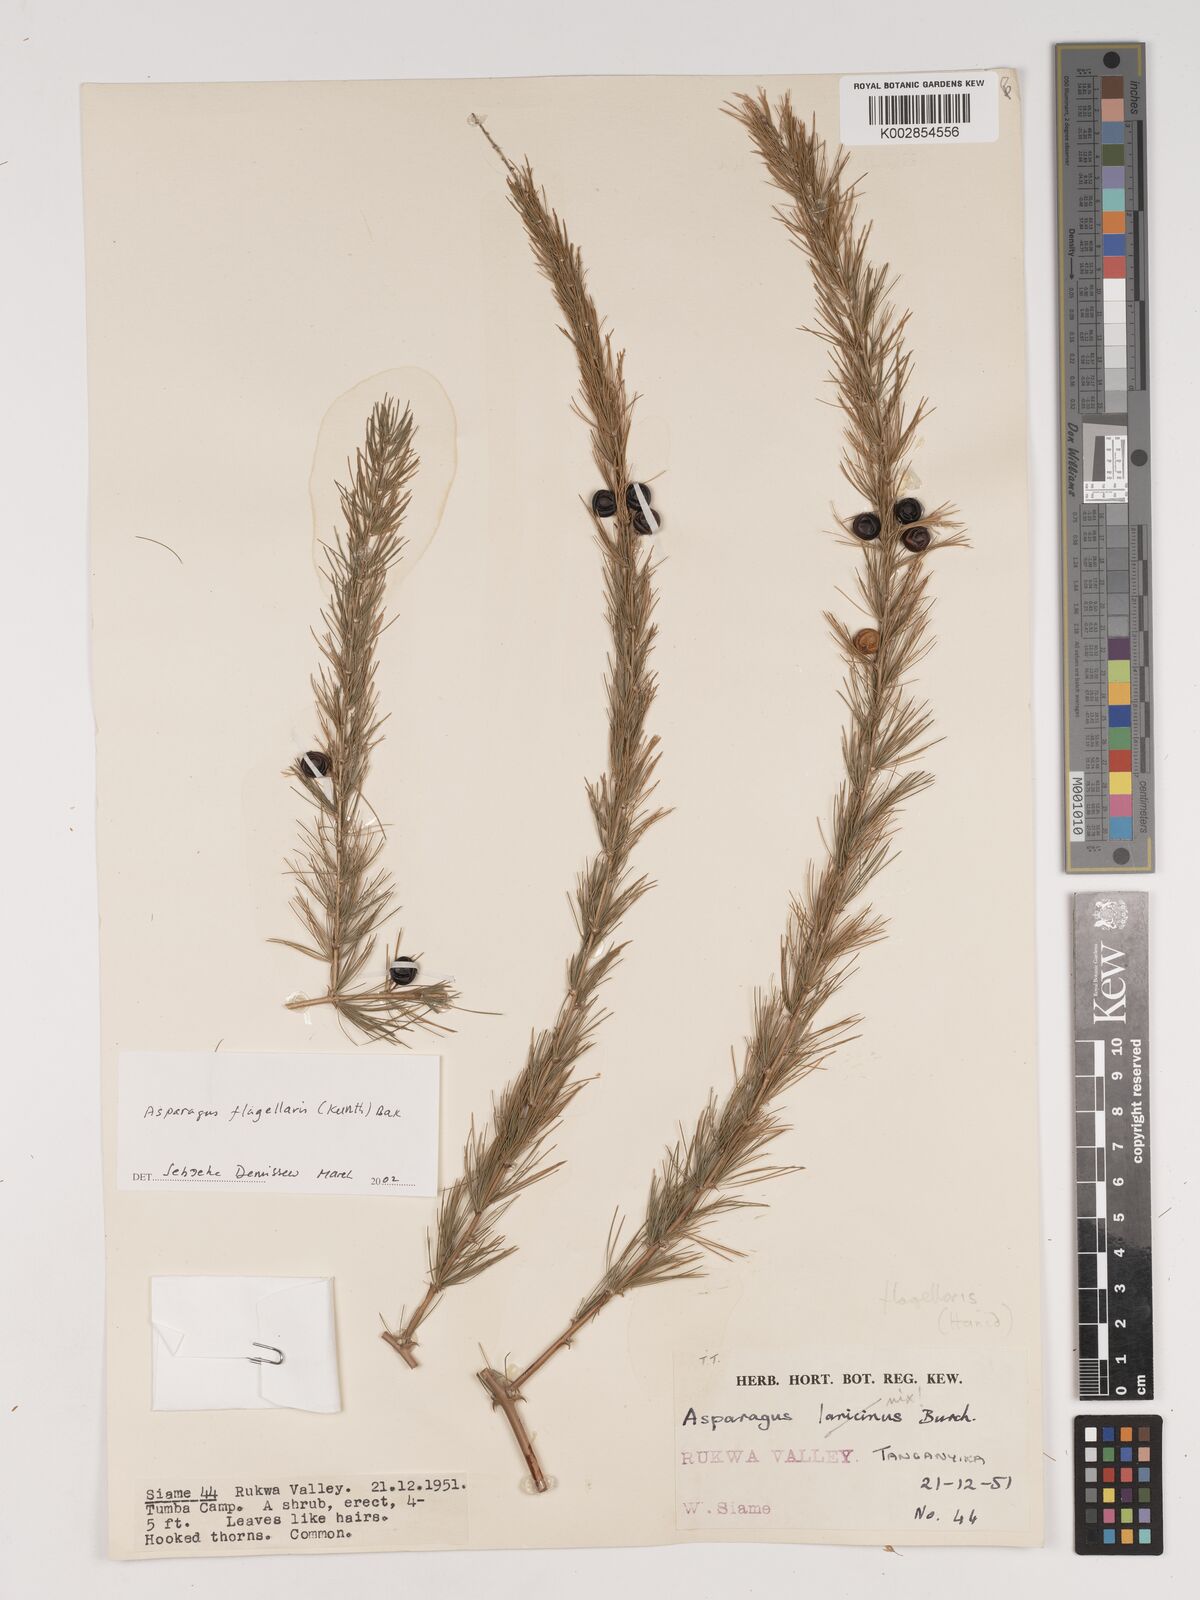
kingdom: Plantae
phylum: Tracheophyta
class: Liliopsida
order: Asparagales
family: Asparagaceae
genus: Asparagus
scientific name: Asparagus flagellaris
